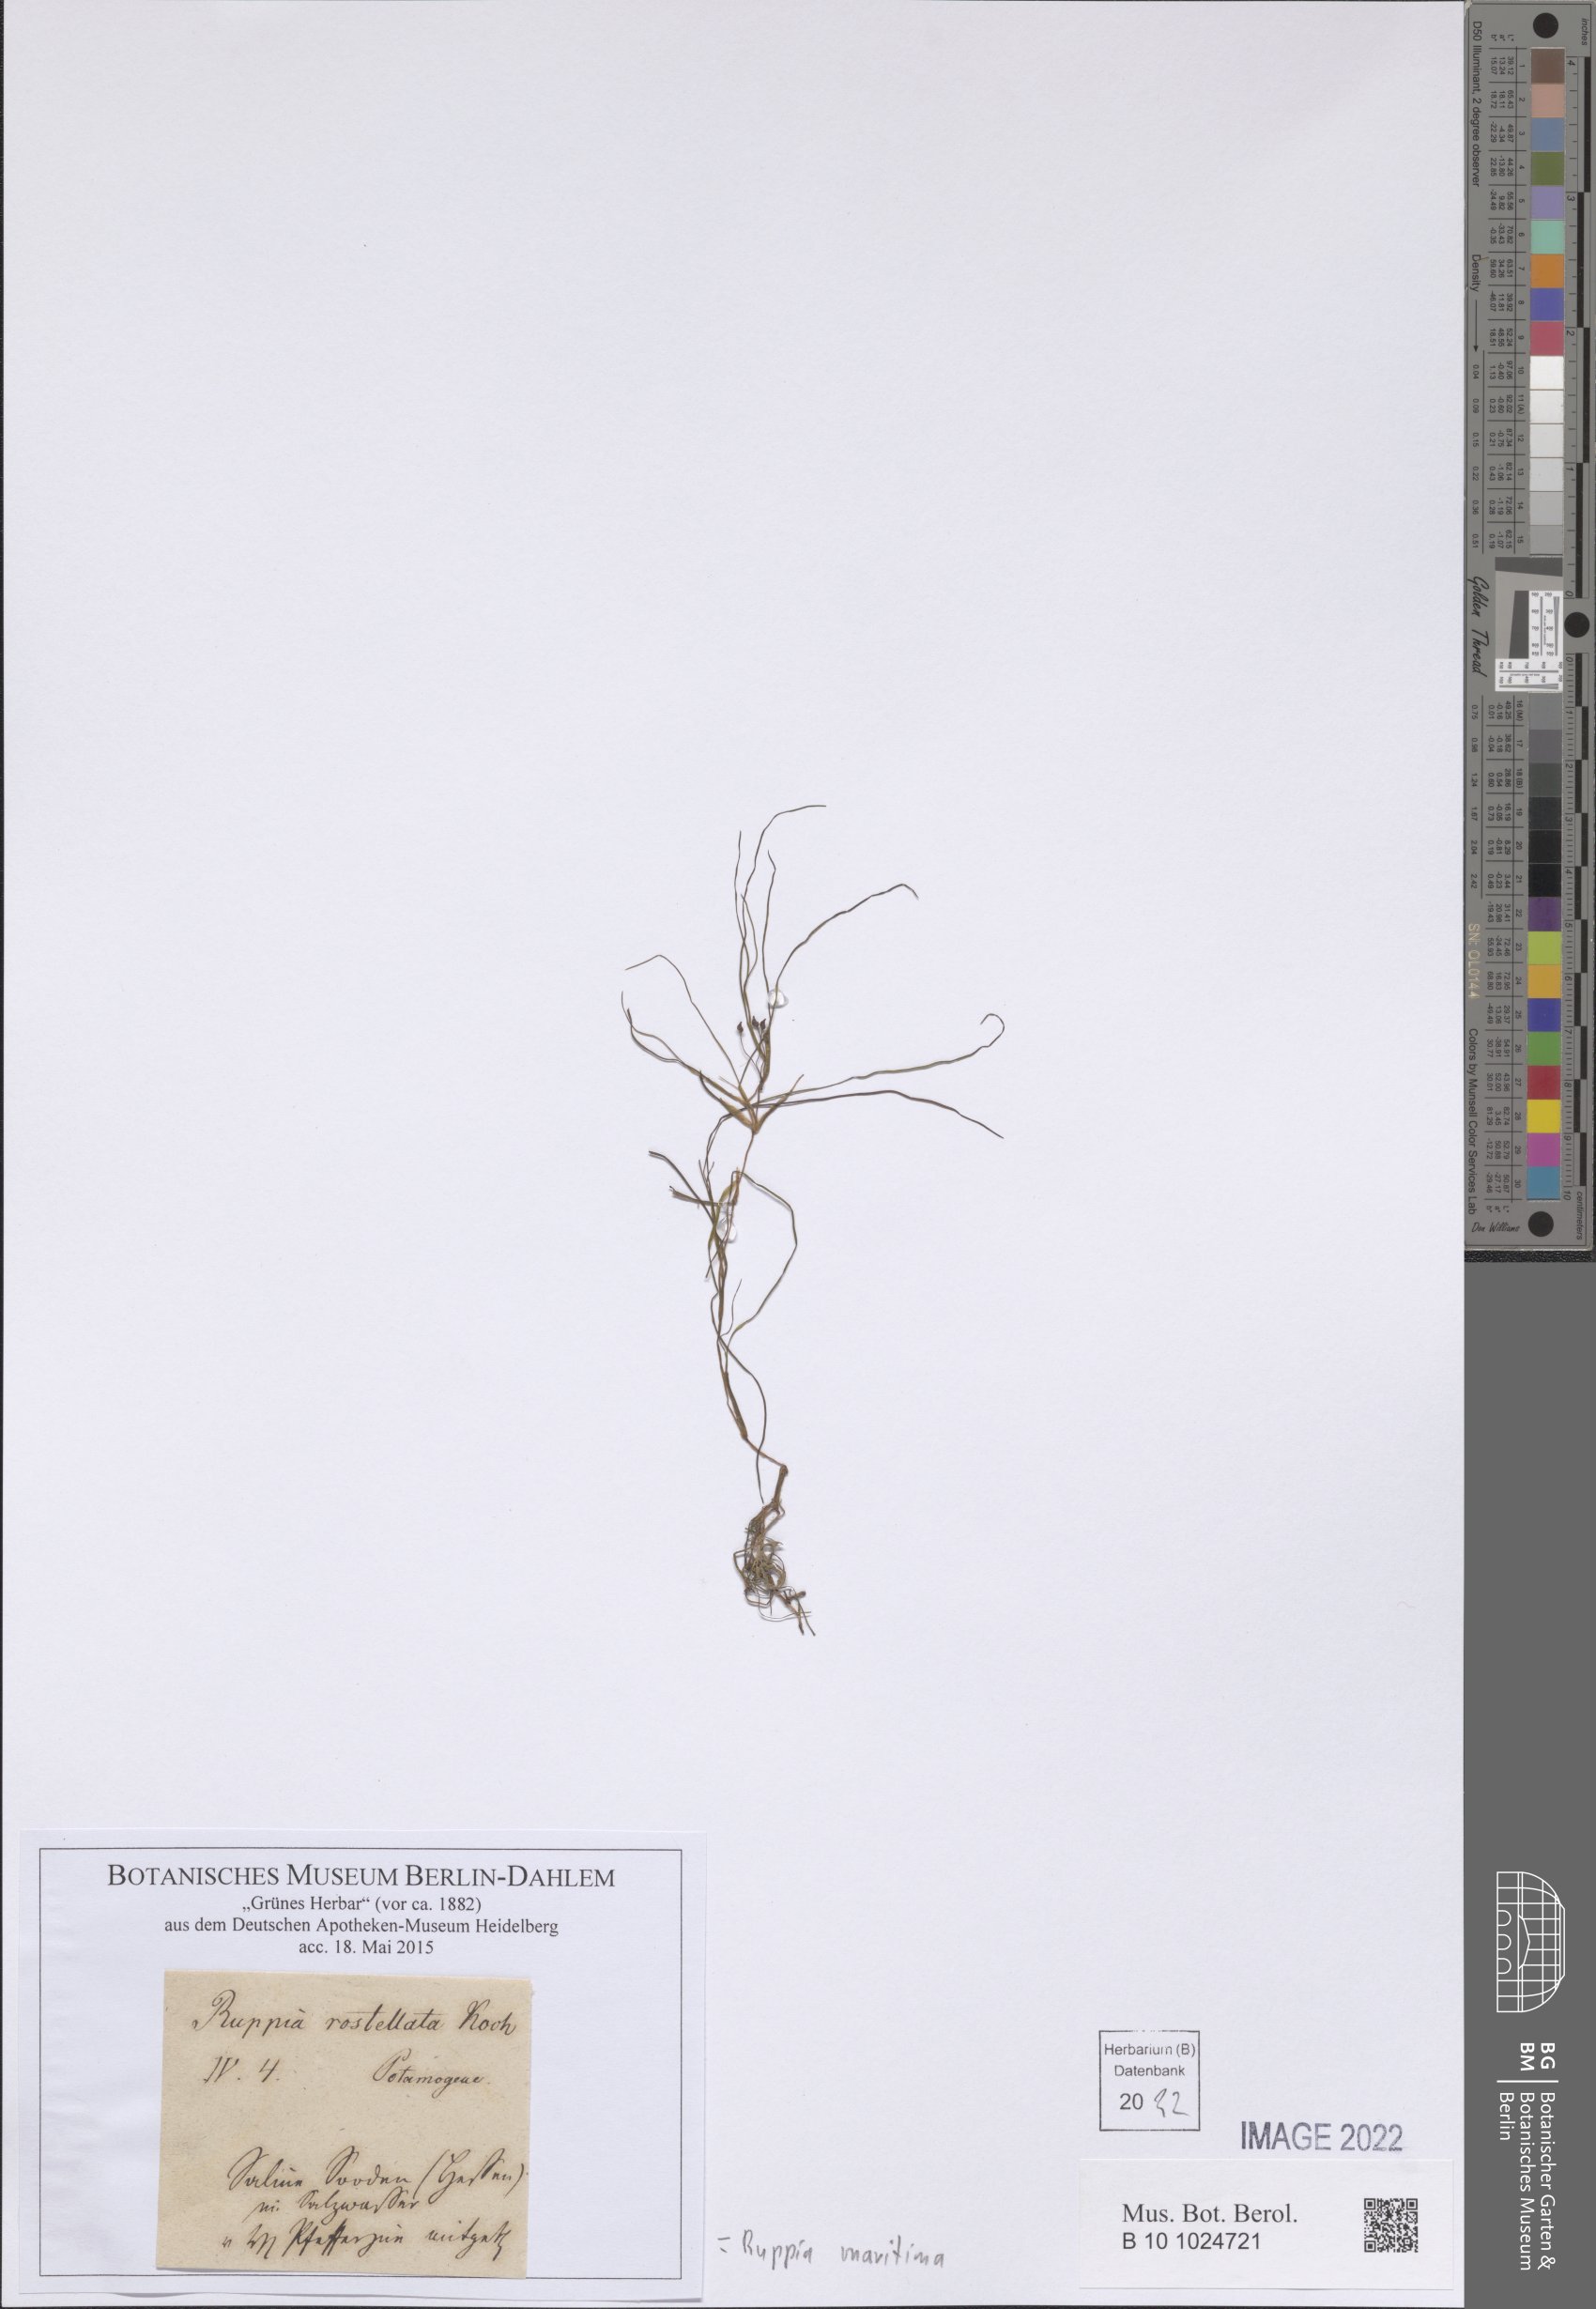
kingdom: Plantae
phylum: Tracheophyta
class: Liliopsida
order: Alismatales
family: Ruppiaceae
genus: Ruppia
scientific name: Ruppia maritima
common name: Beaked tasselweed
